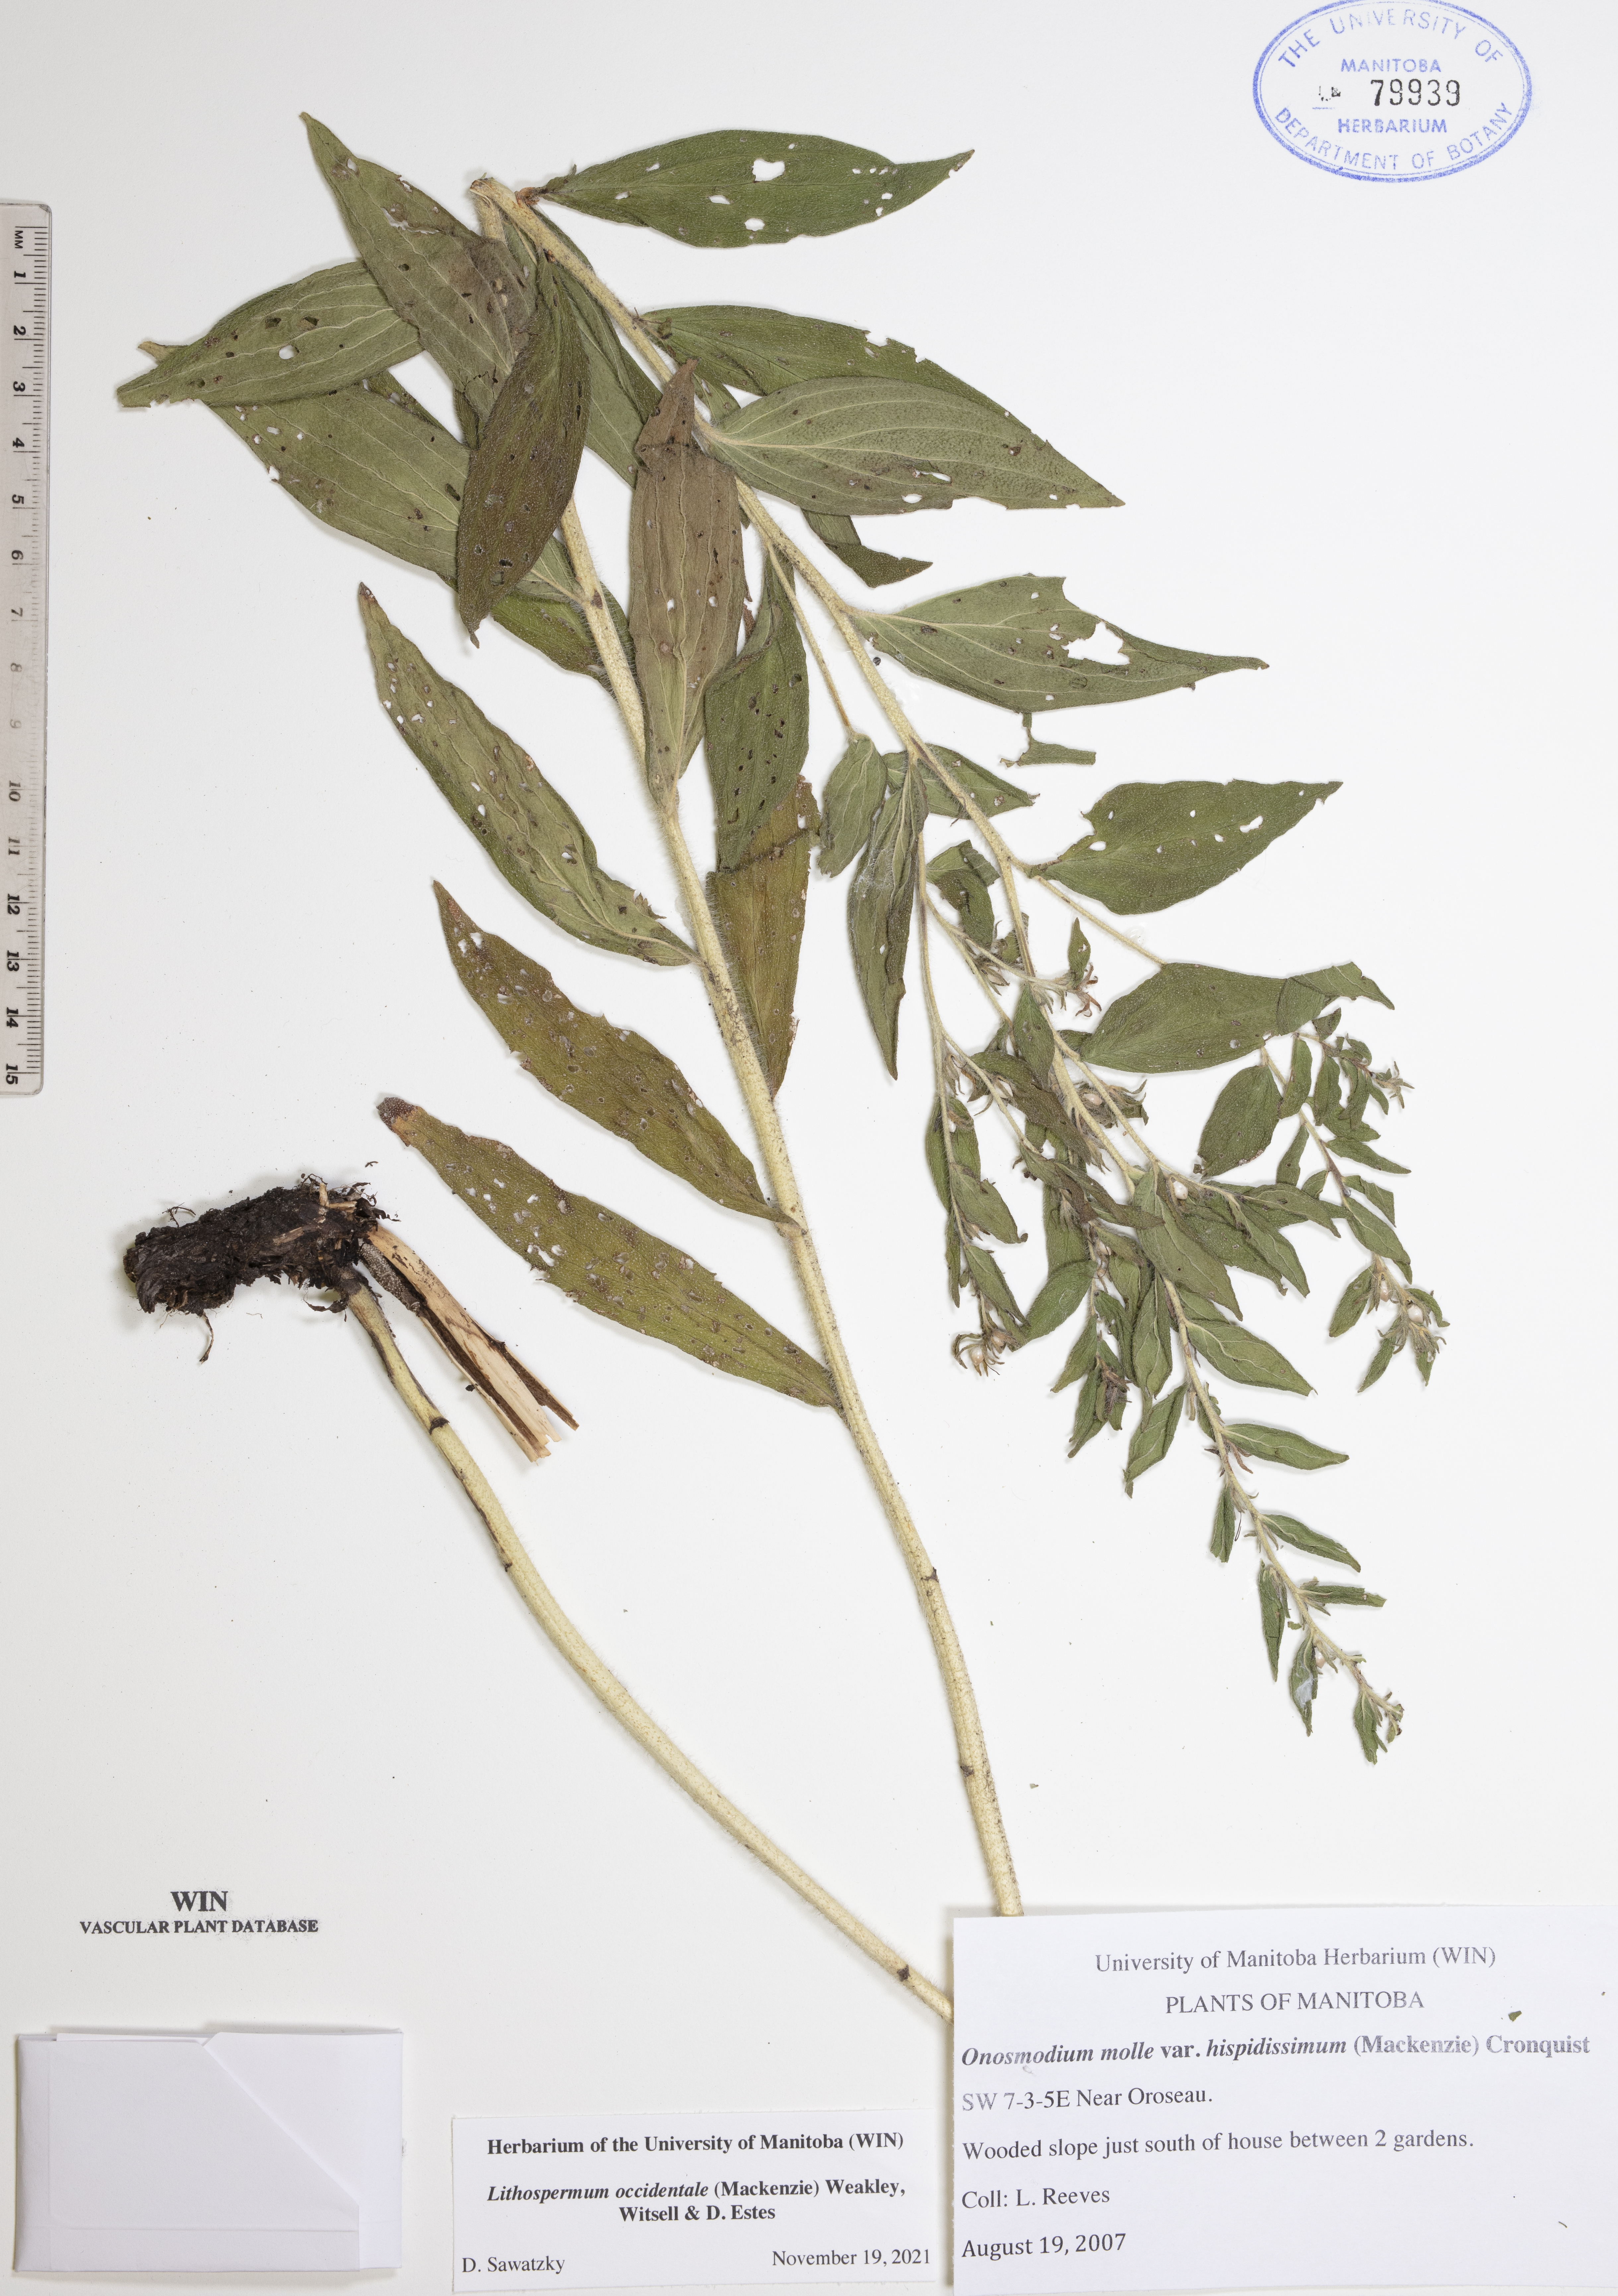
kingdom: Plantae
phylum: Tracheophyta
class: Magnoliopsida
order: Boraginales
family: Boraginaceae
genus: Lithospermum
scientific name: Lithospermum occidentale
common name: Western false gromwell
